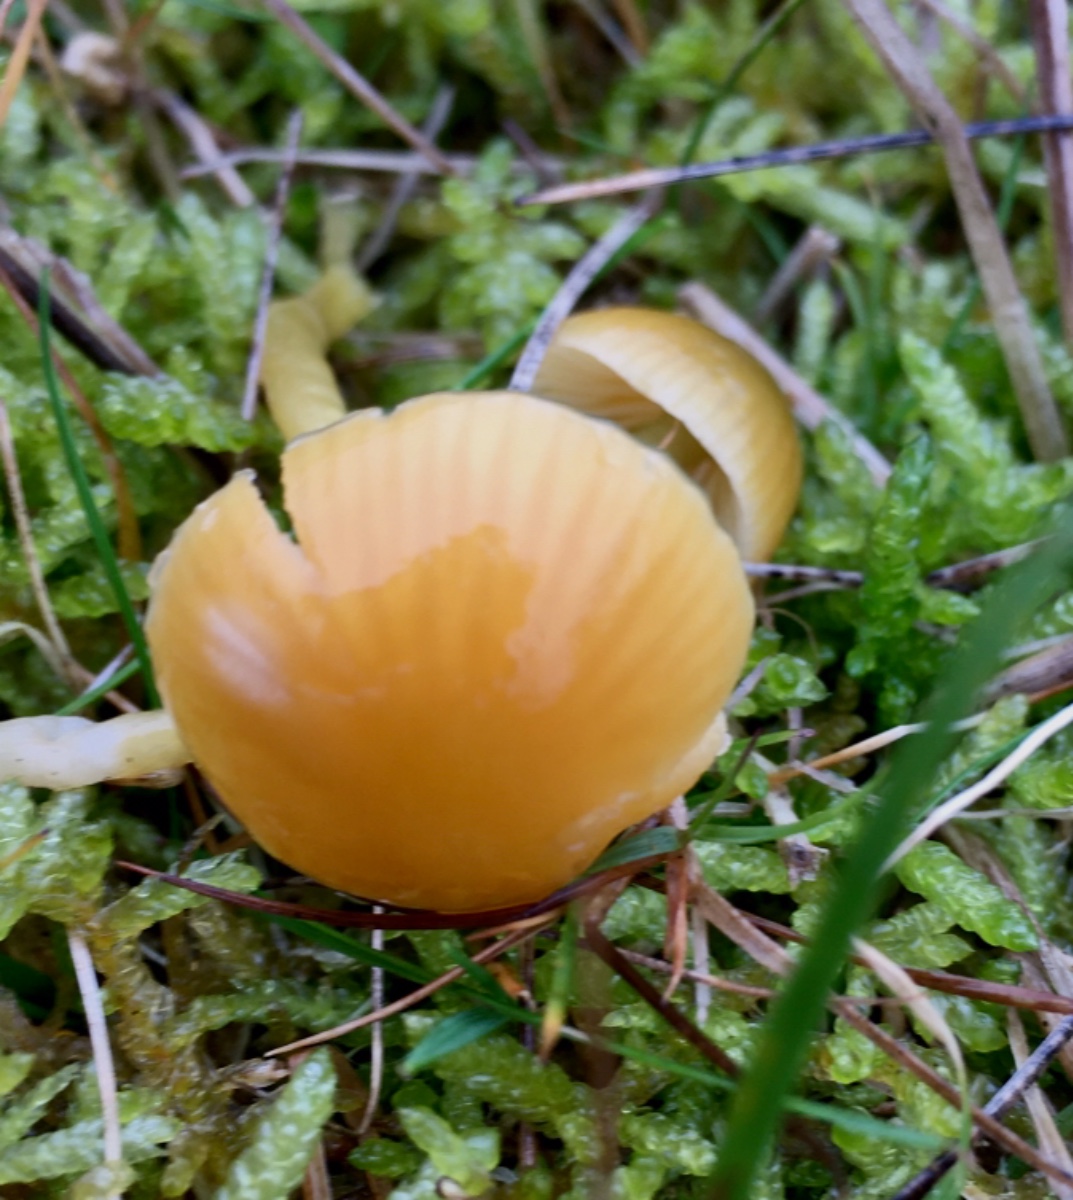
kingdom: Fungi
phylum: Basidiomycota
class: Agaricomycetes
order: Agaricales
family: Hygrophoraceae
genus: Gliophorus
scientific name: Gliophorus laetus
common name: brusk-vokshat
